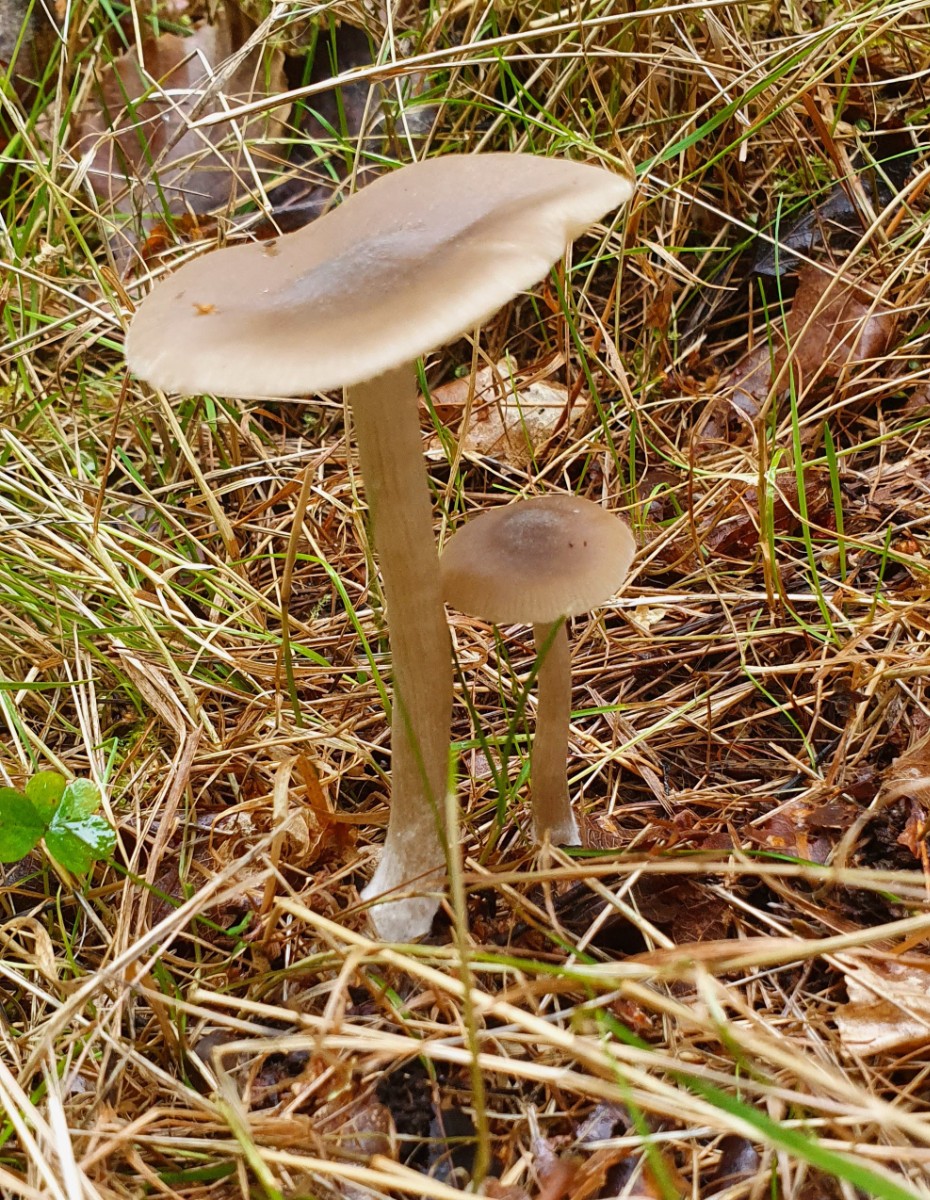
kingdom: Fungi
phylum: Basidiomycota
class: Agaricomycetes
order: Agaricales
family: Entolomataceae
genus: Entoloma
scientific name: Entoloma
